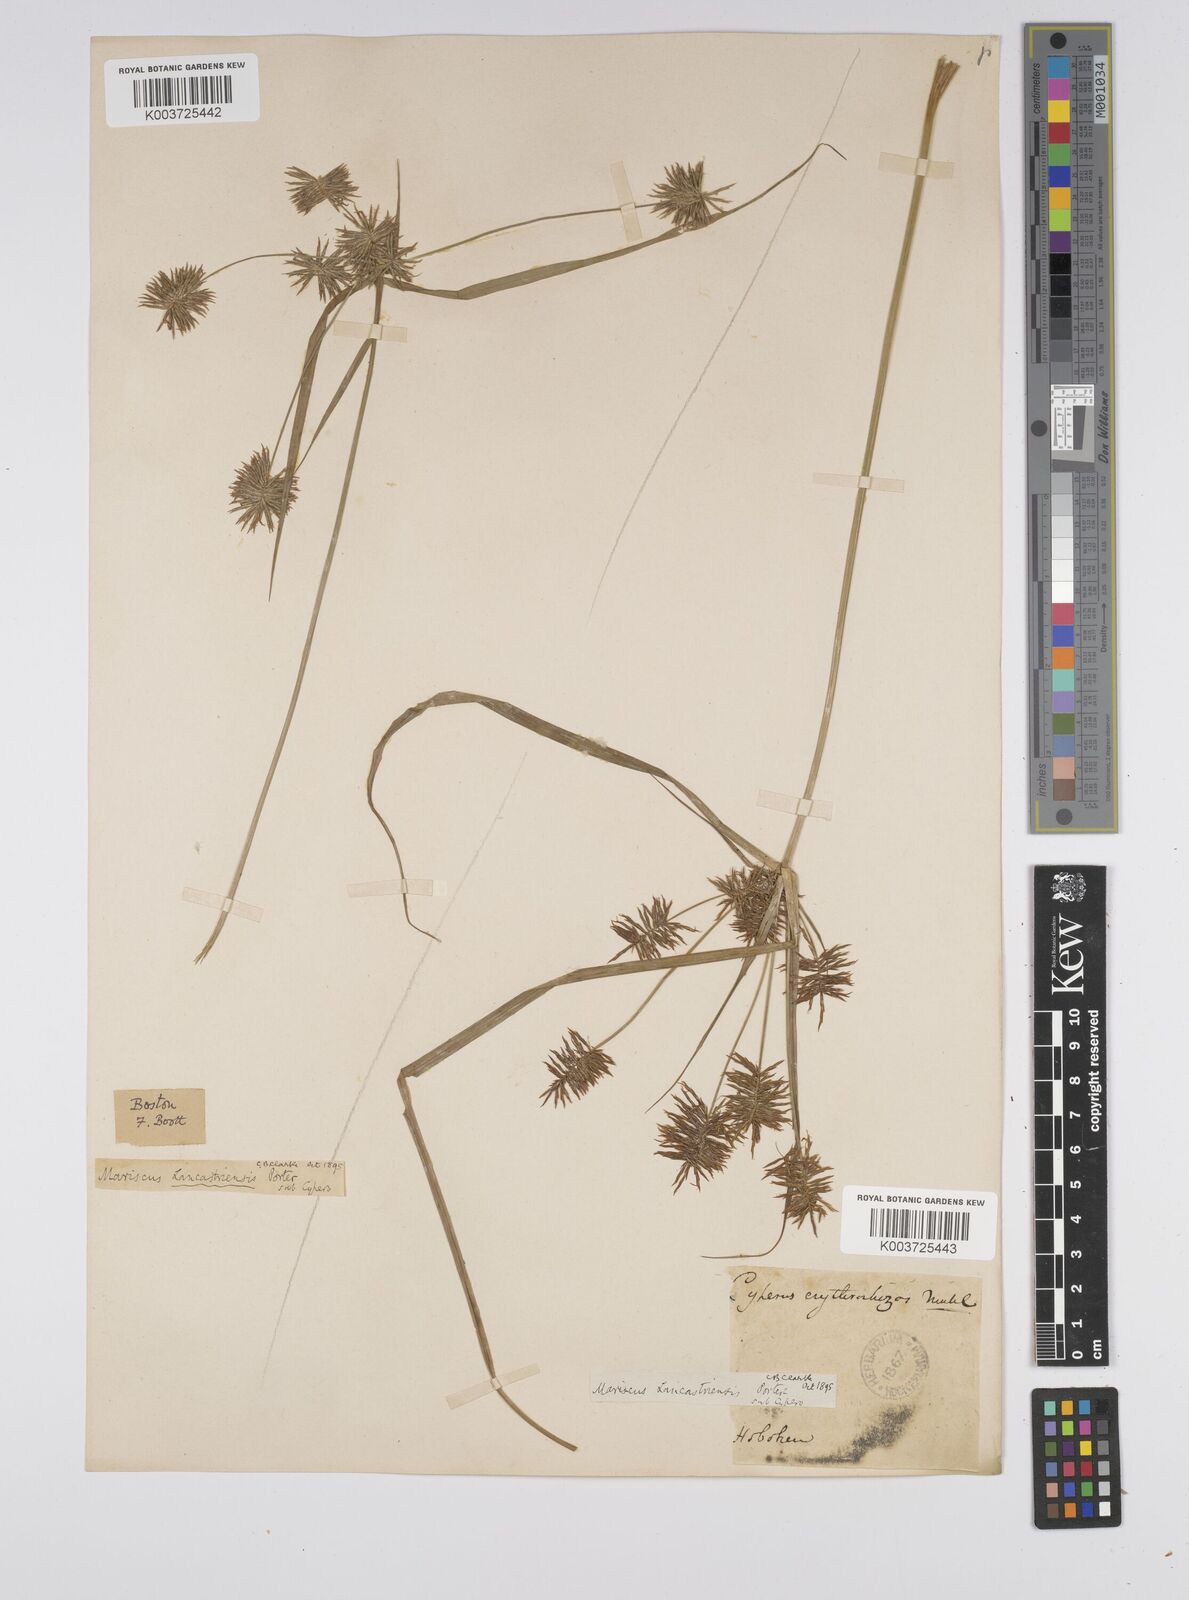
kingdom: Plantae
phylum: Tracheophyta
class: Liliopsida
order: Poales
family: Cyperaceae
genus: Cyperus
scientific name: Cyperus lancastriensis
